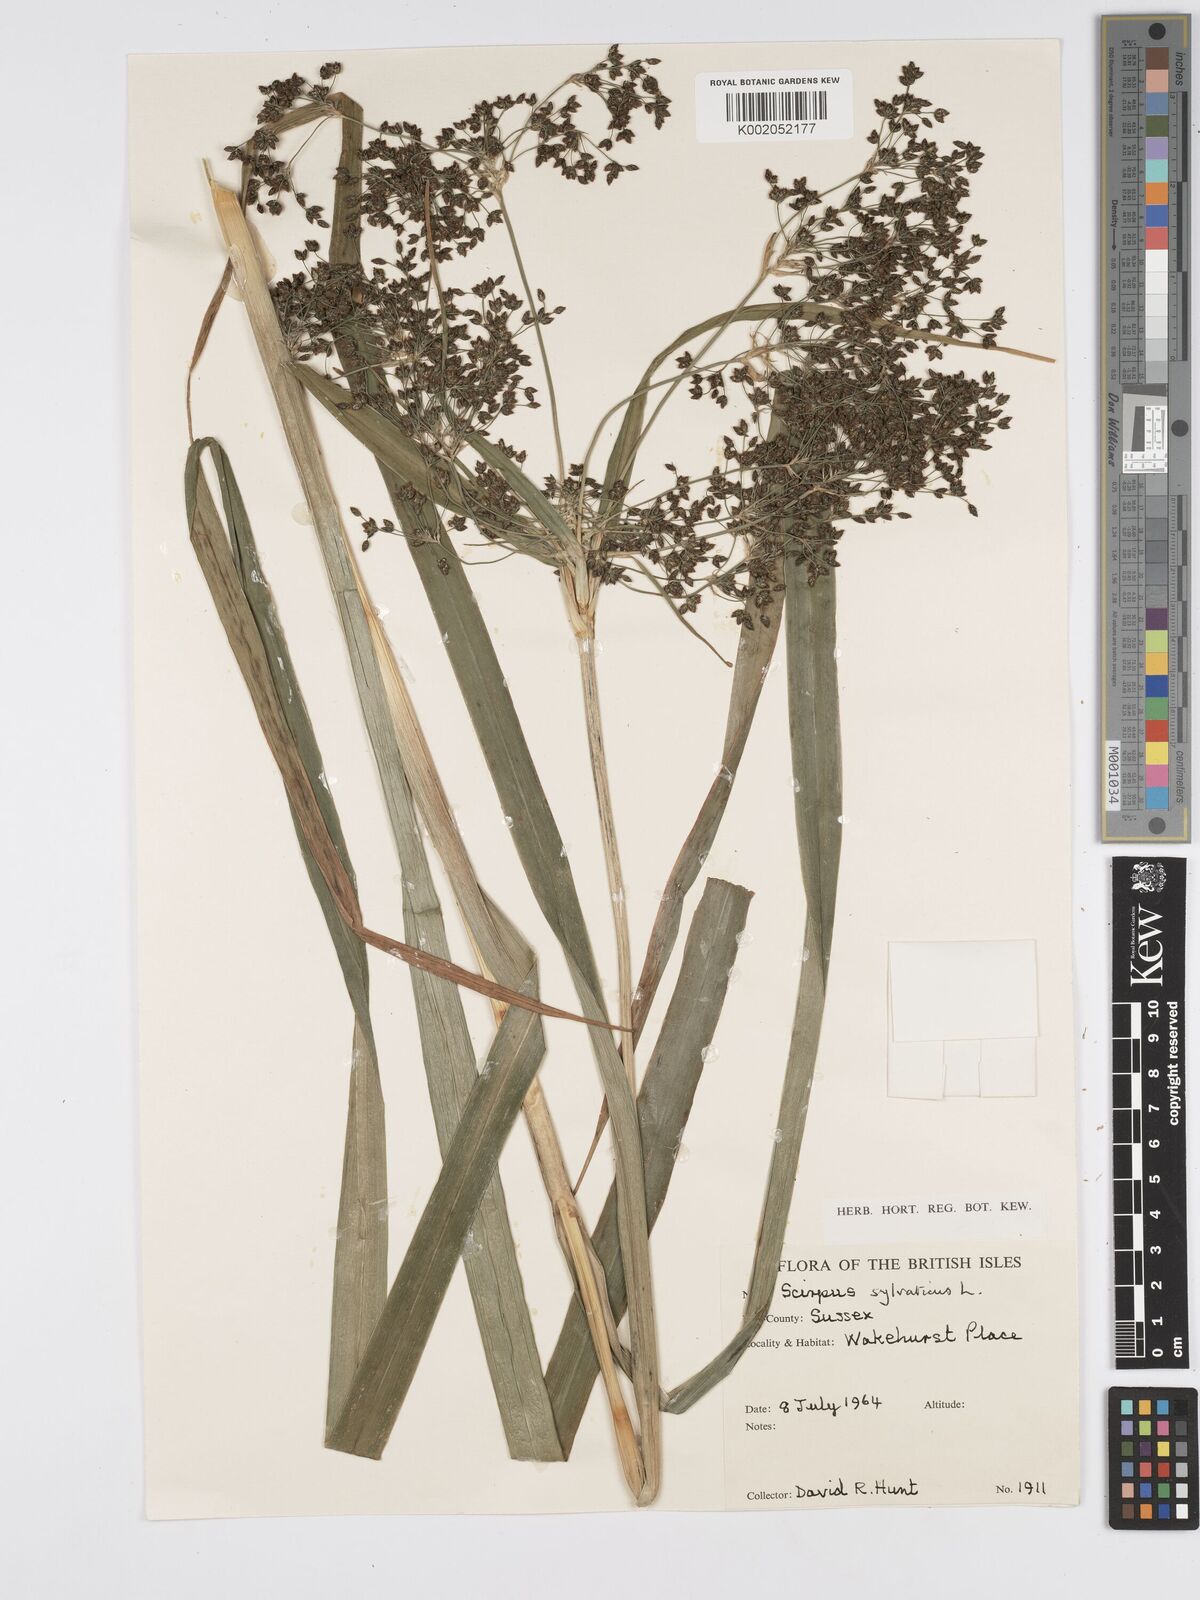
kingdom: Plantae
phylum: Tracheophyta
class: Liliopsida
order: Poales
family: Cyperaceae
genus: Scirpus
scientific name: Scirpus sylvaticus
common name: Wood club-rush
